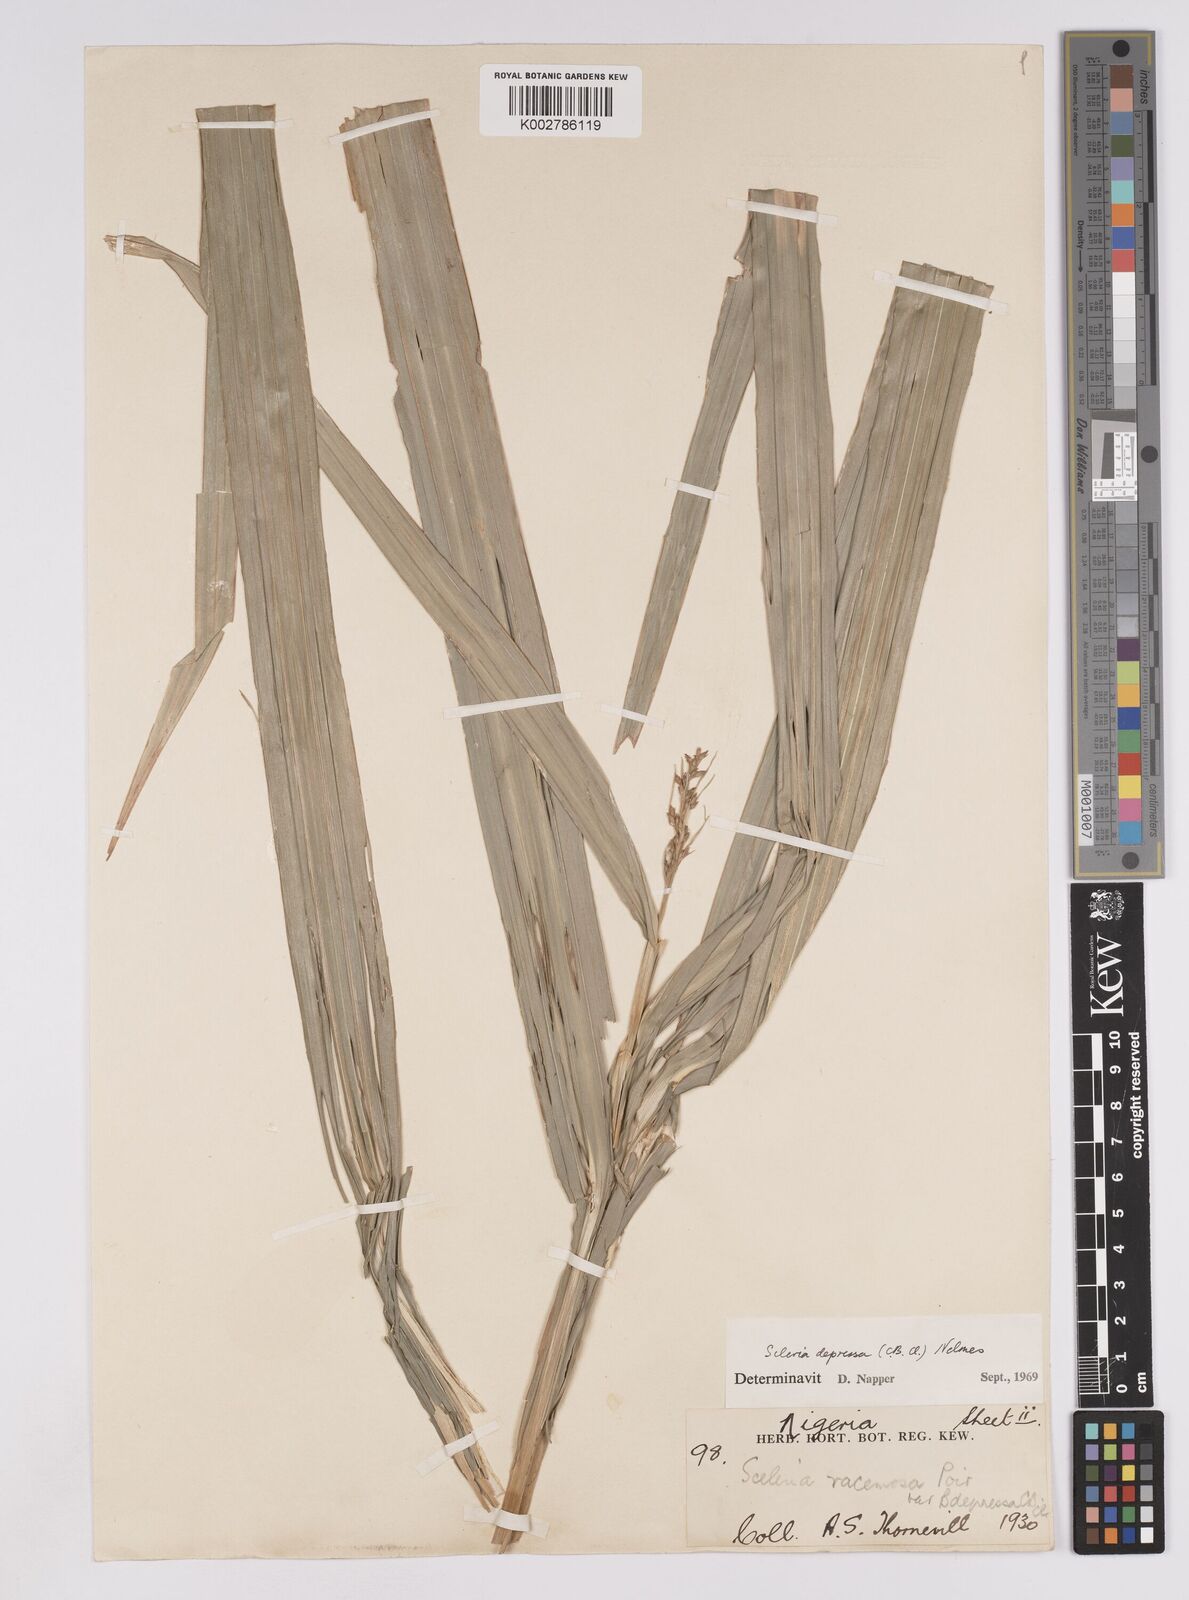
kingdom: Plantae
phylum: Tracheophyta
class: Liliopsida
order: Poales
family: Cyperaceae
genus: Scleria
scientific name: Scleria depressa
